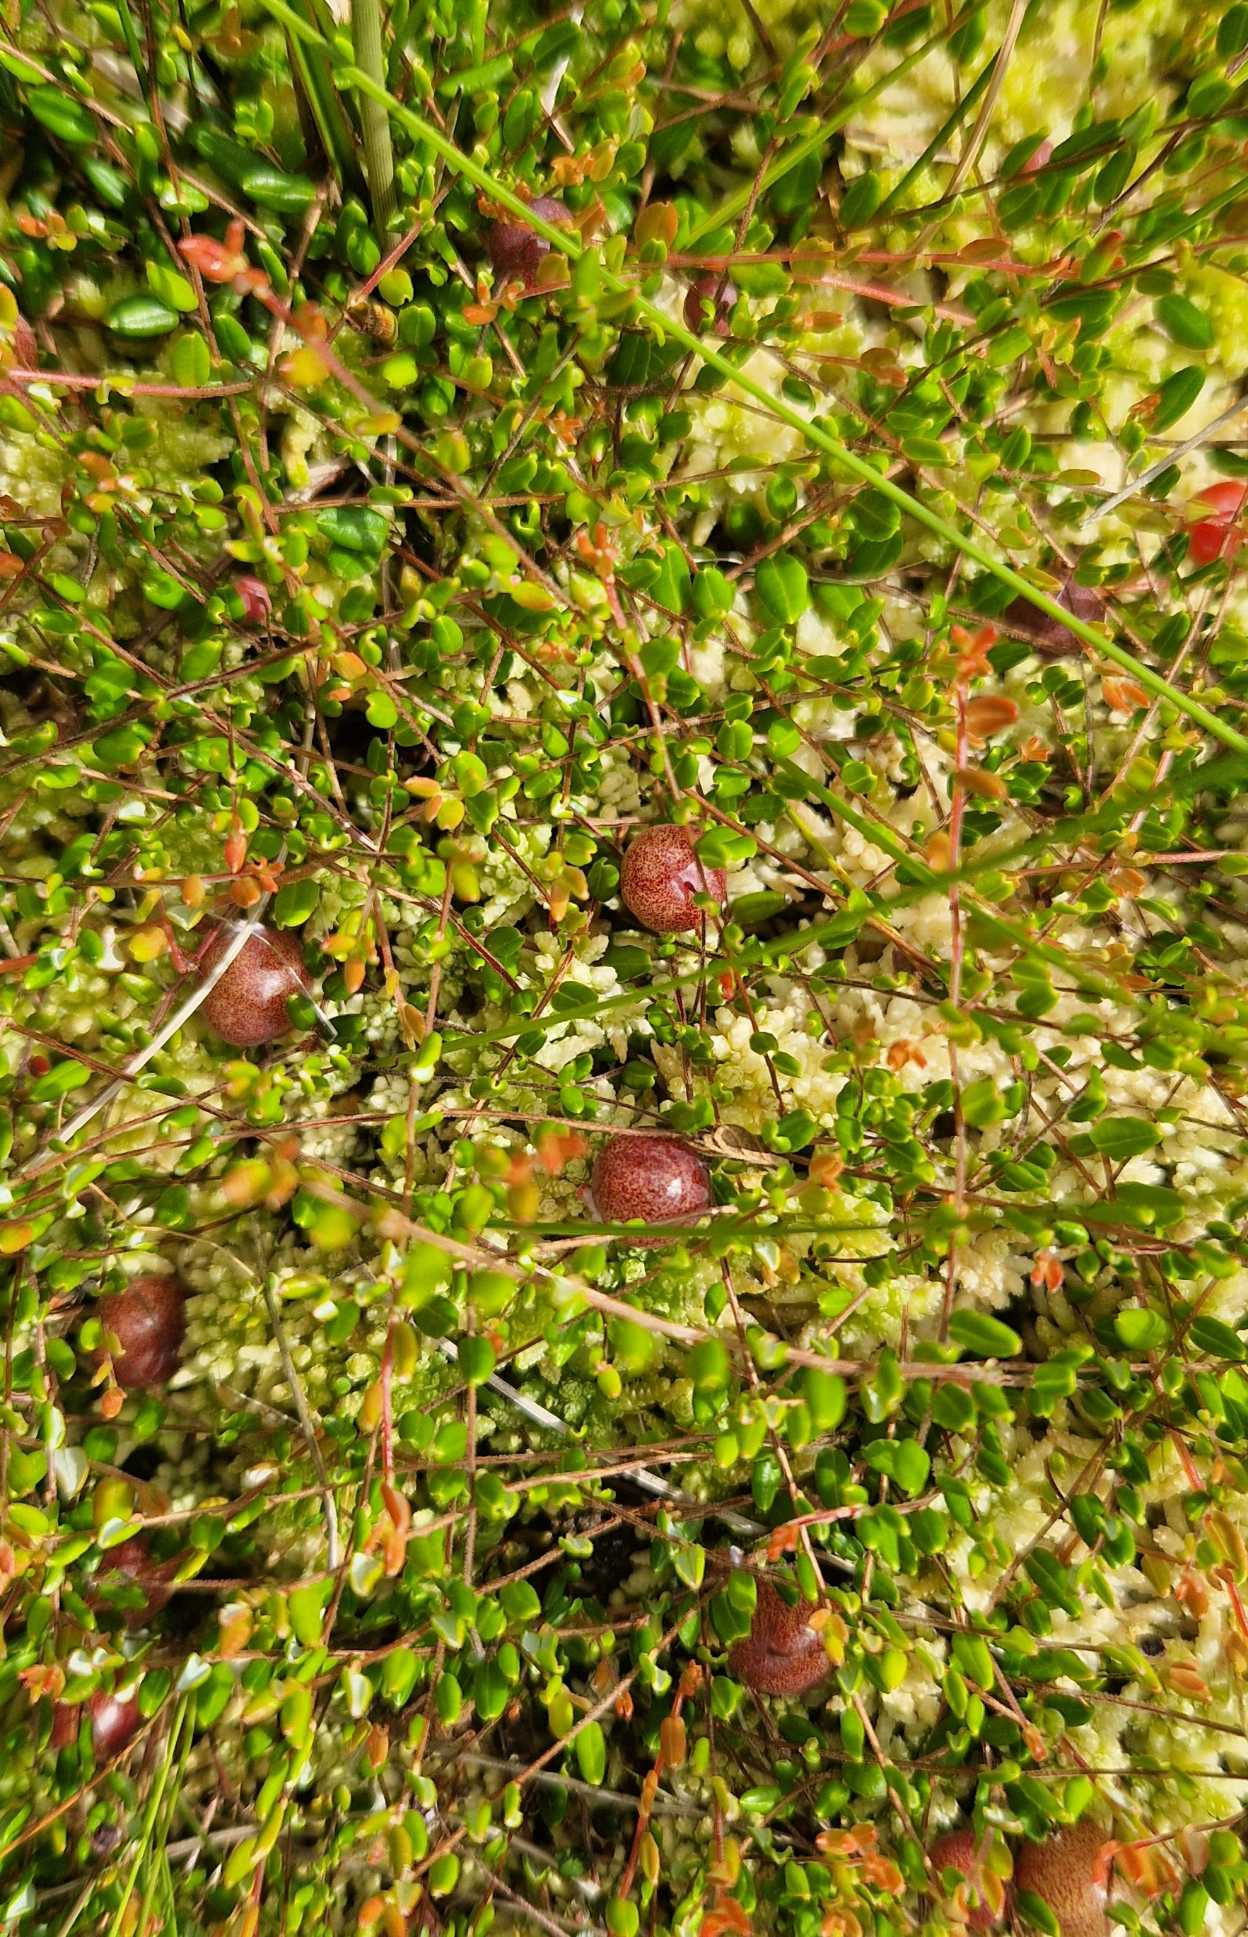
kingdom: Plantae
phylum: Tracheophyta
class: Magnoliopsida
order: Ericales
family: Ericaceae
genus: Vaccinium
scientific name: Vaccinium oxycoccos
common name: Tranebær
